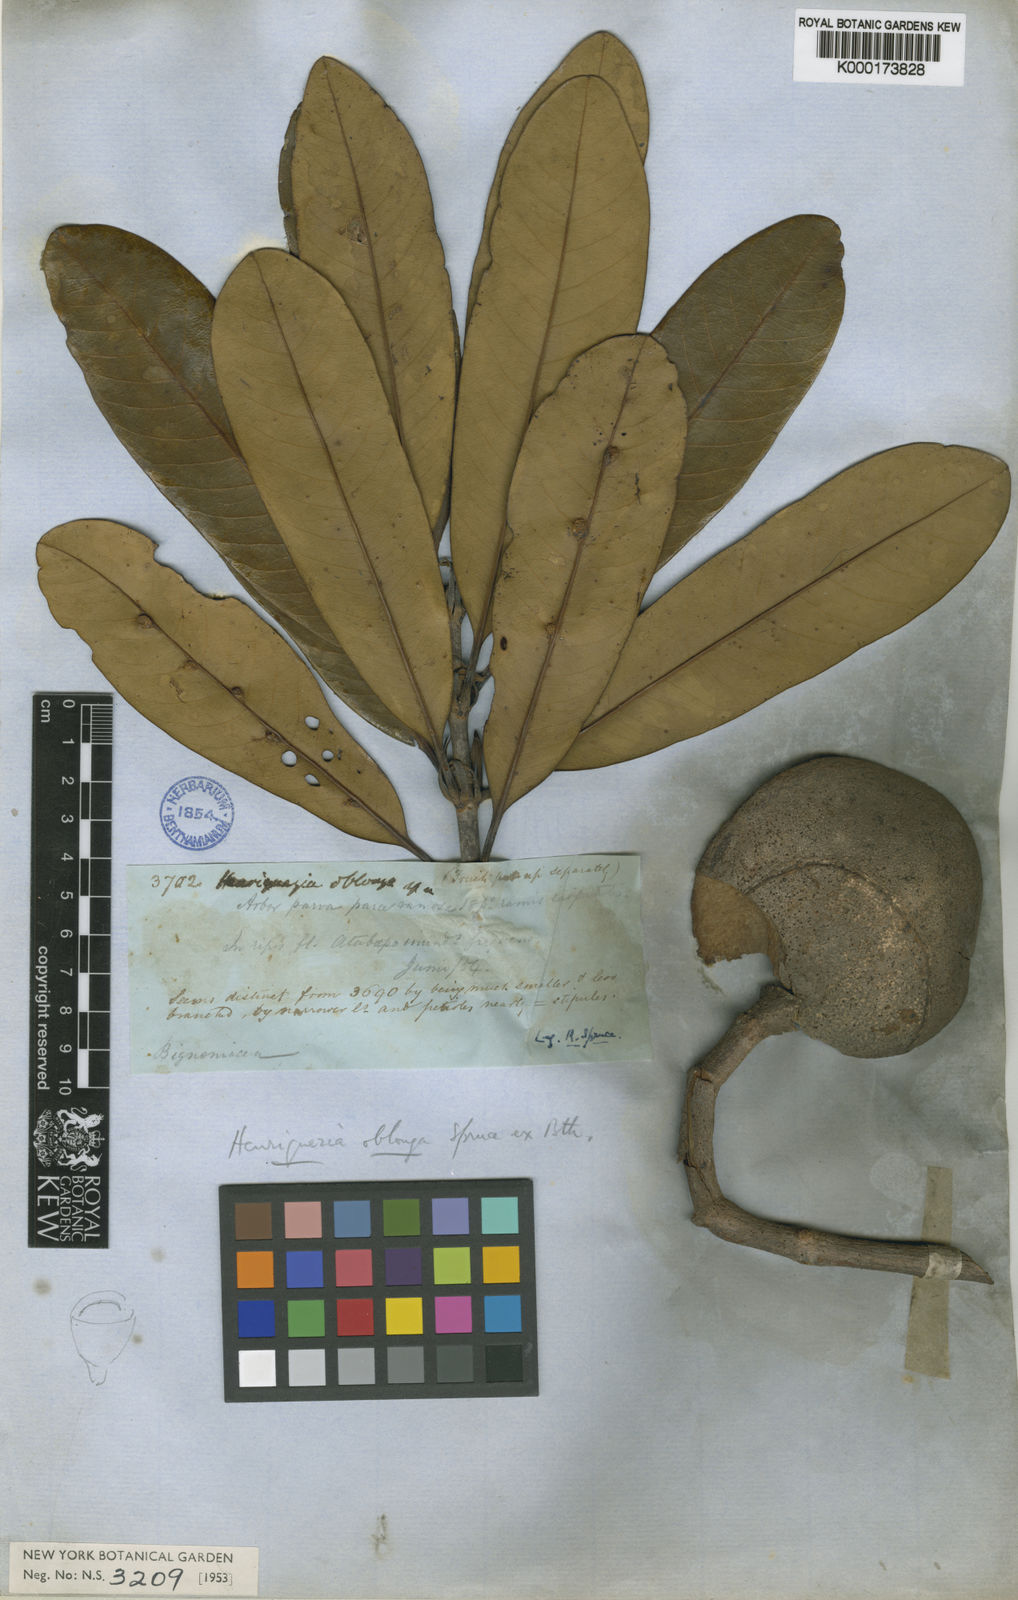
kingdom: Plantae
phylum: Tracheophyta
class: Magnoliopsida
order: Gentianales
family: Rubiaceae
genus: Henriquezia
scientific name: Henriquezia nitida
